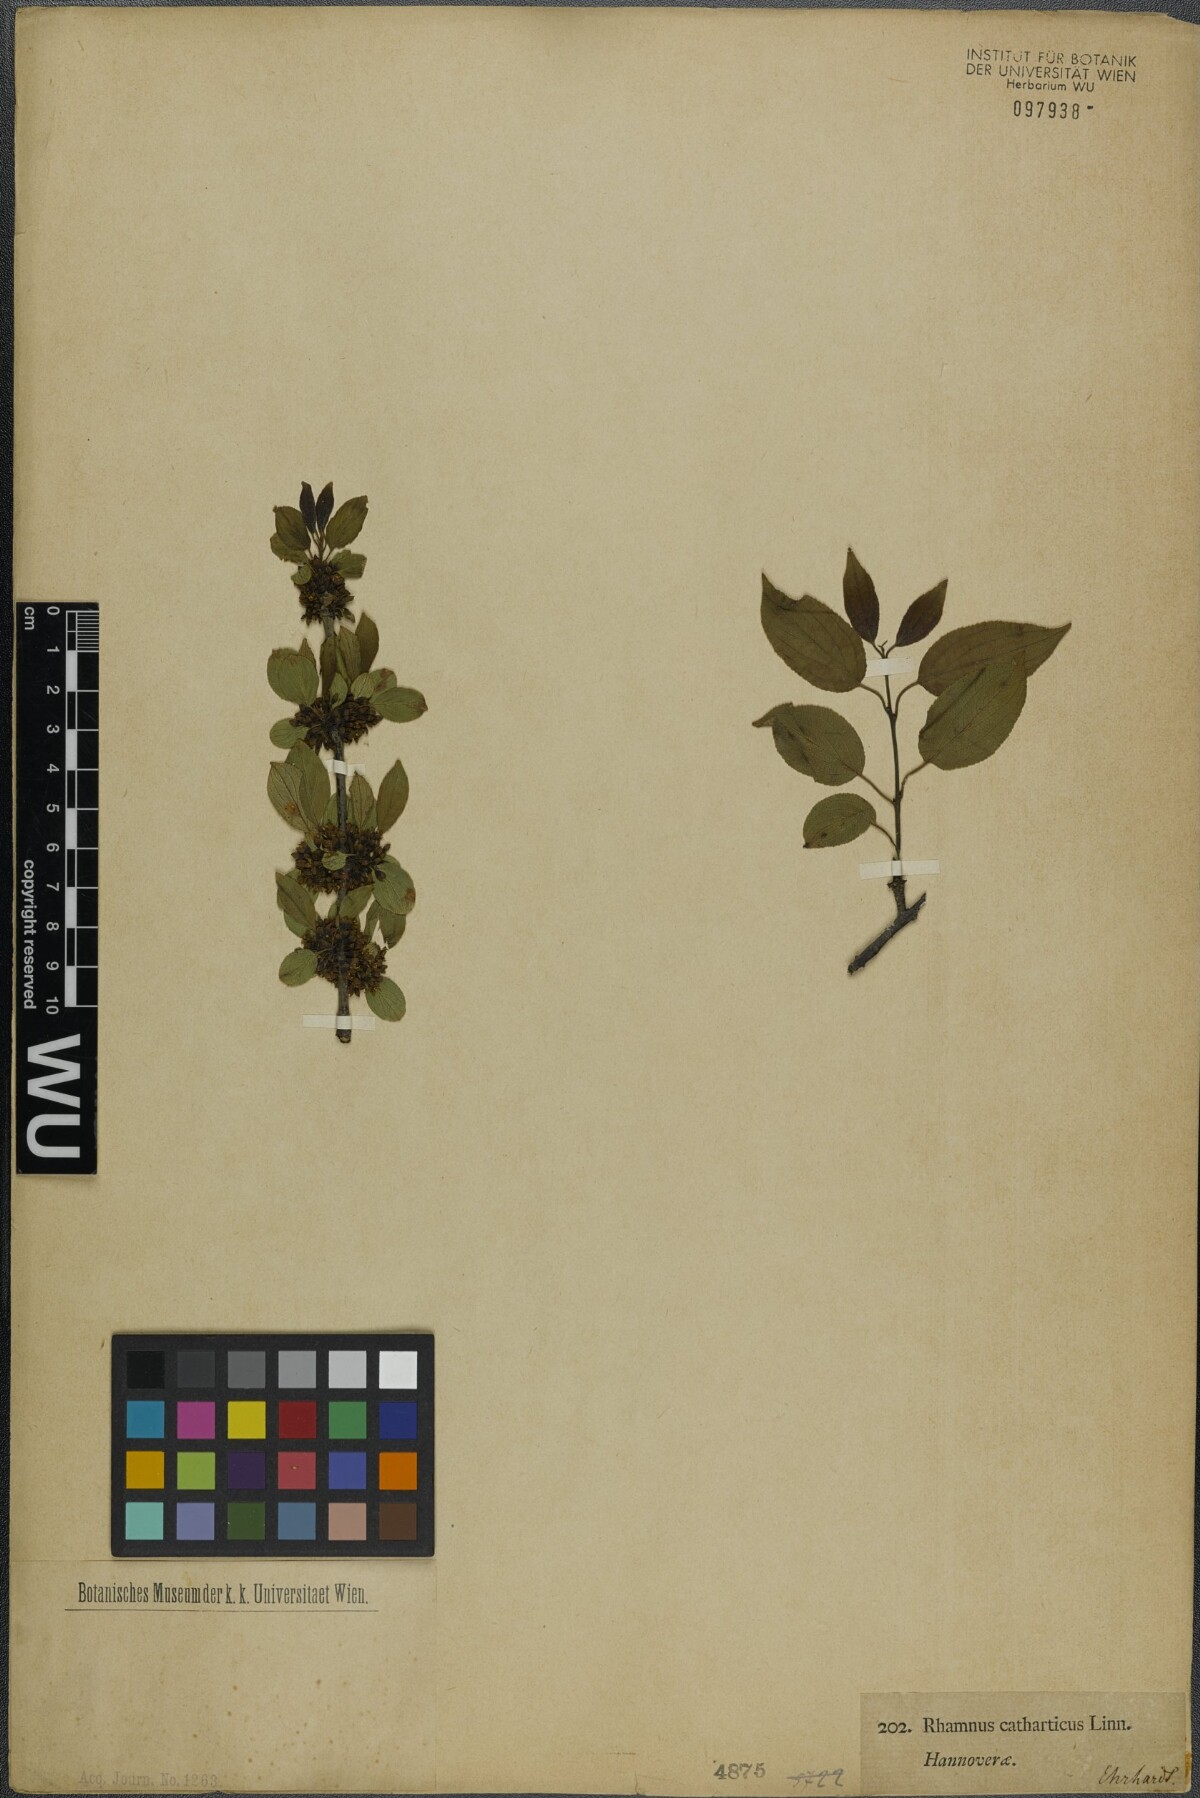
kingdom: Plantae
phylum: Tracheophyta
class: Magnoliopsida
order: Rosales
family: Rhamnaceae
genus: Rhamnus
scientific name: Rhamnus cathartica
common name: Common buckthorn
